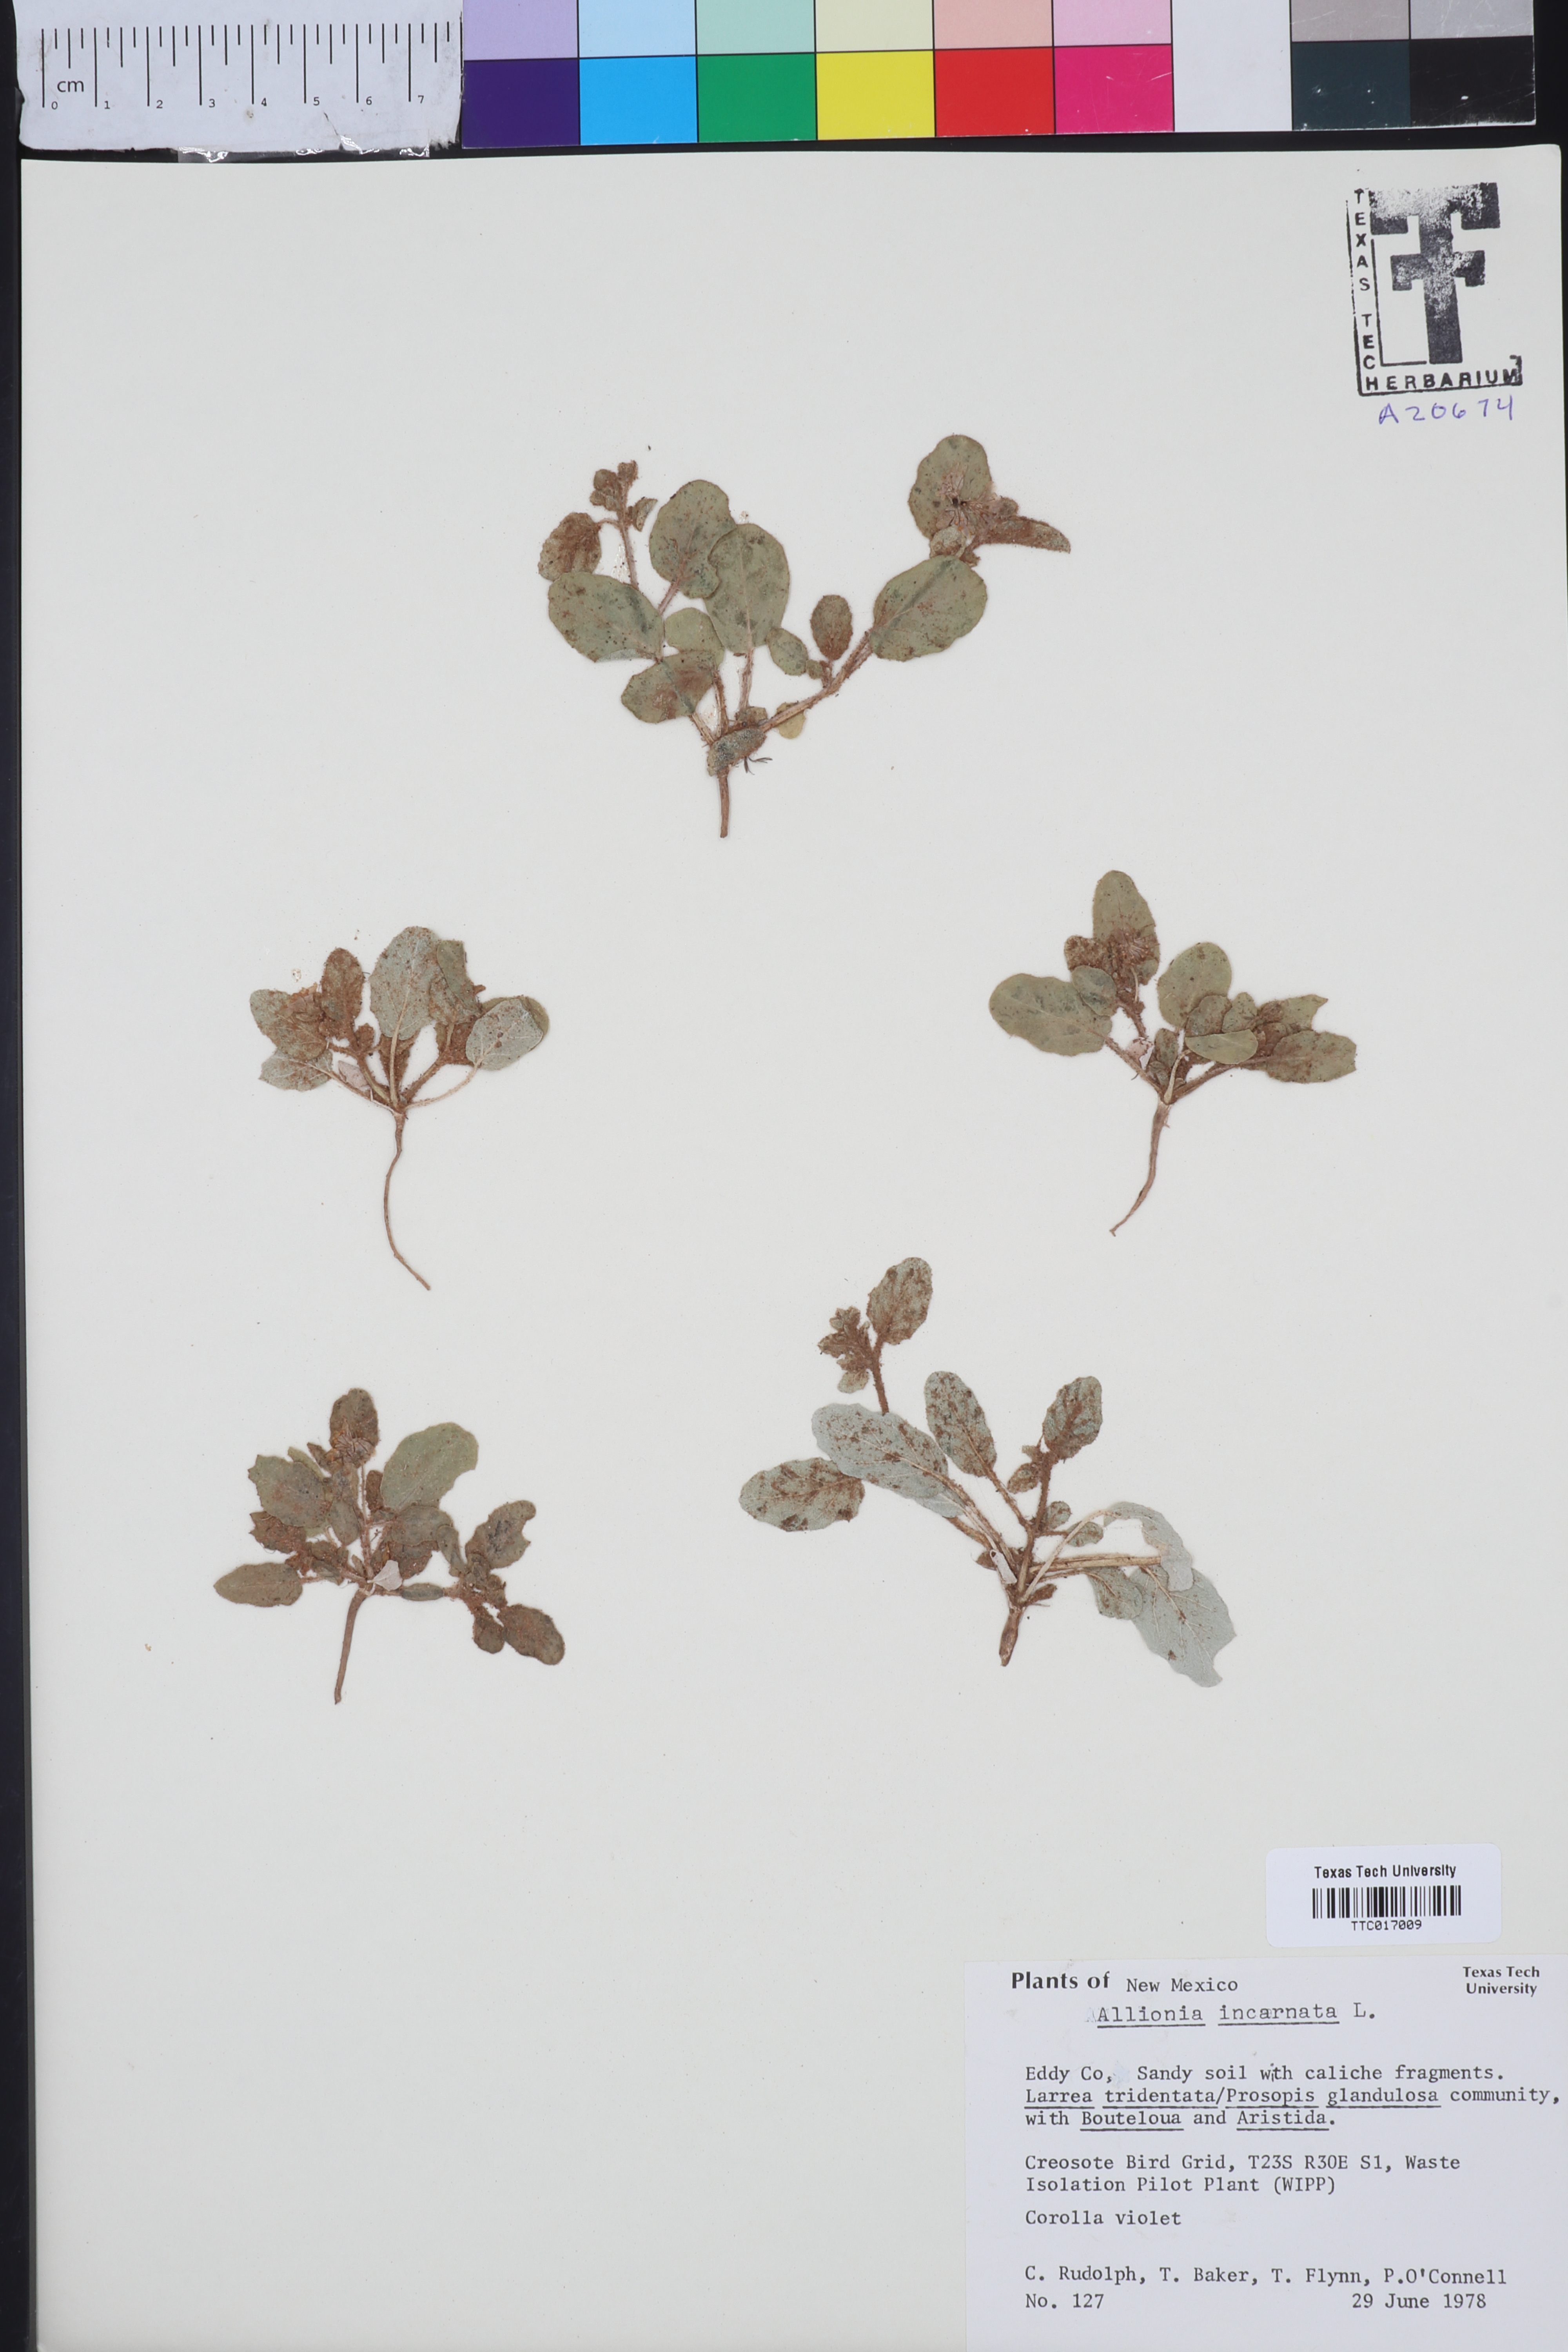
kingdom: Plantae
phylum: Tracheophyta
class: Magnoliopsida
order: Caryophyllales
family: Nyctaginaceae
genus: Allionia
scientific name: Allionia incarnata
